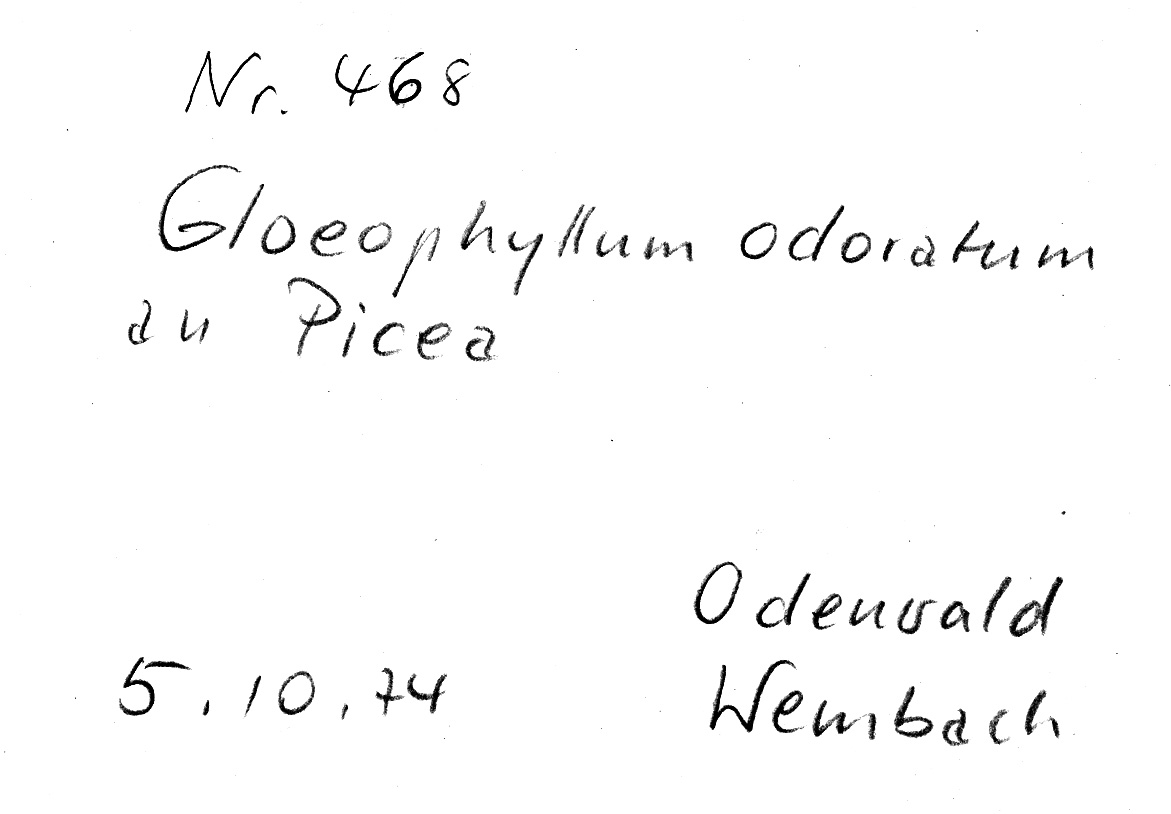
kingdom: Plantae
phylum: Tracheophyta
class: Pinopsida
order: Pinales
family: Pinaceae
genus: Picea
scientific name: Picea
